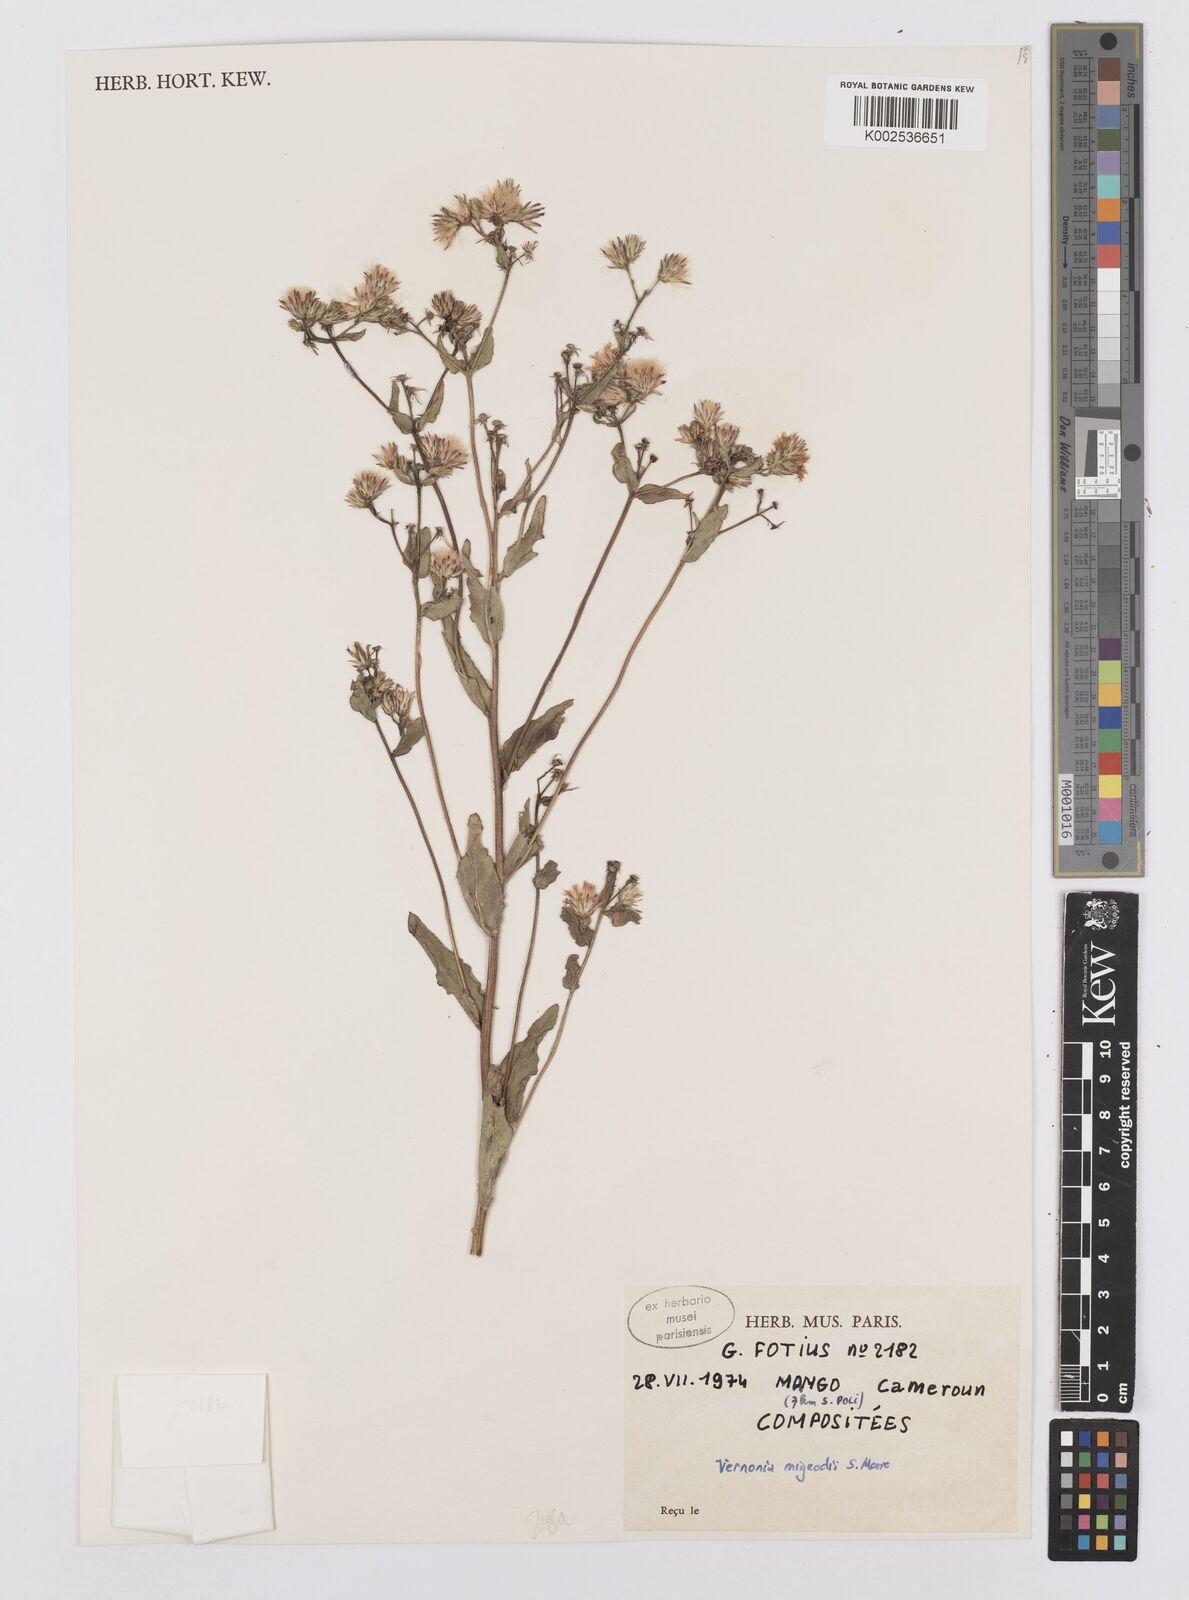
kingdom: Plantae
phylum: Tracheophyta
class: Magnoliopsida
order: Asterales
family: Asteraceae
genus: Vernoniastrum
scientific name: Vernoniastrum migeodii
